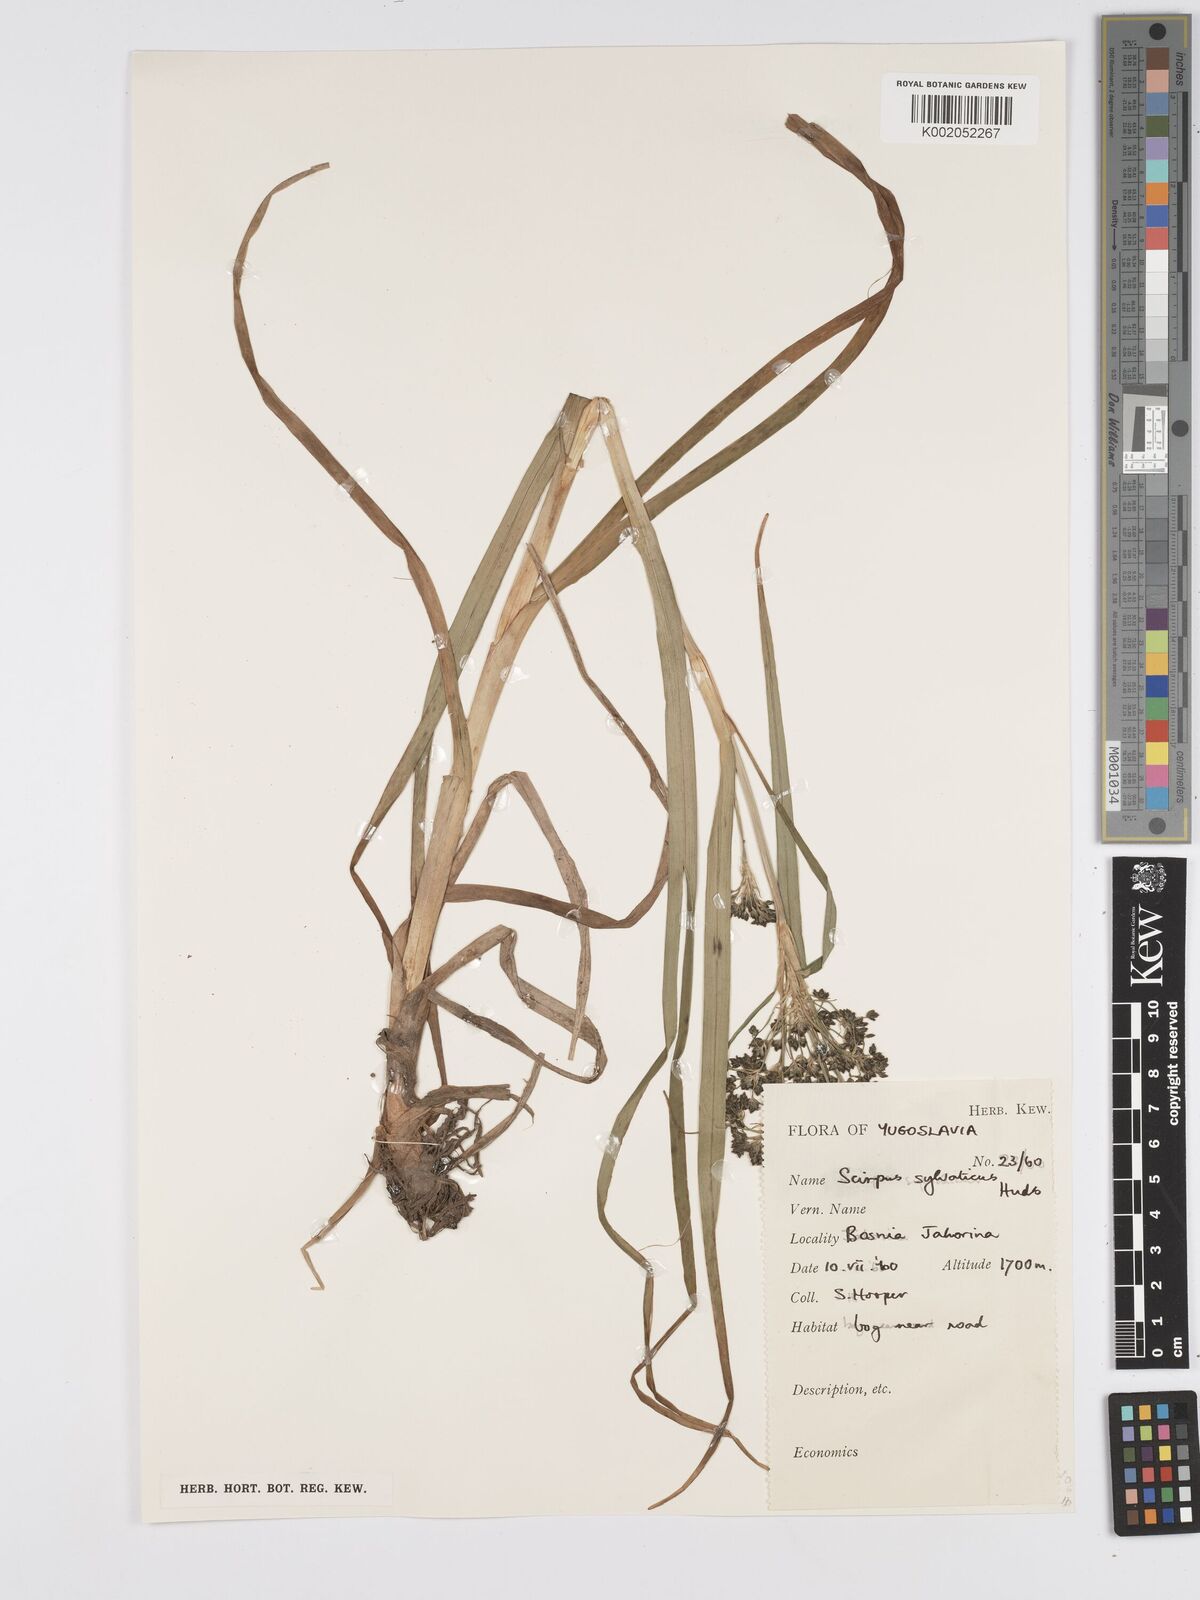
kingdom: Plantae
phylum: Tracheophyta
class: Liliopsida
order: Poales
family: Cyperaceae
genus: Scirpus
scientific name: Scirpus
